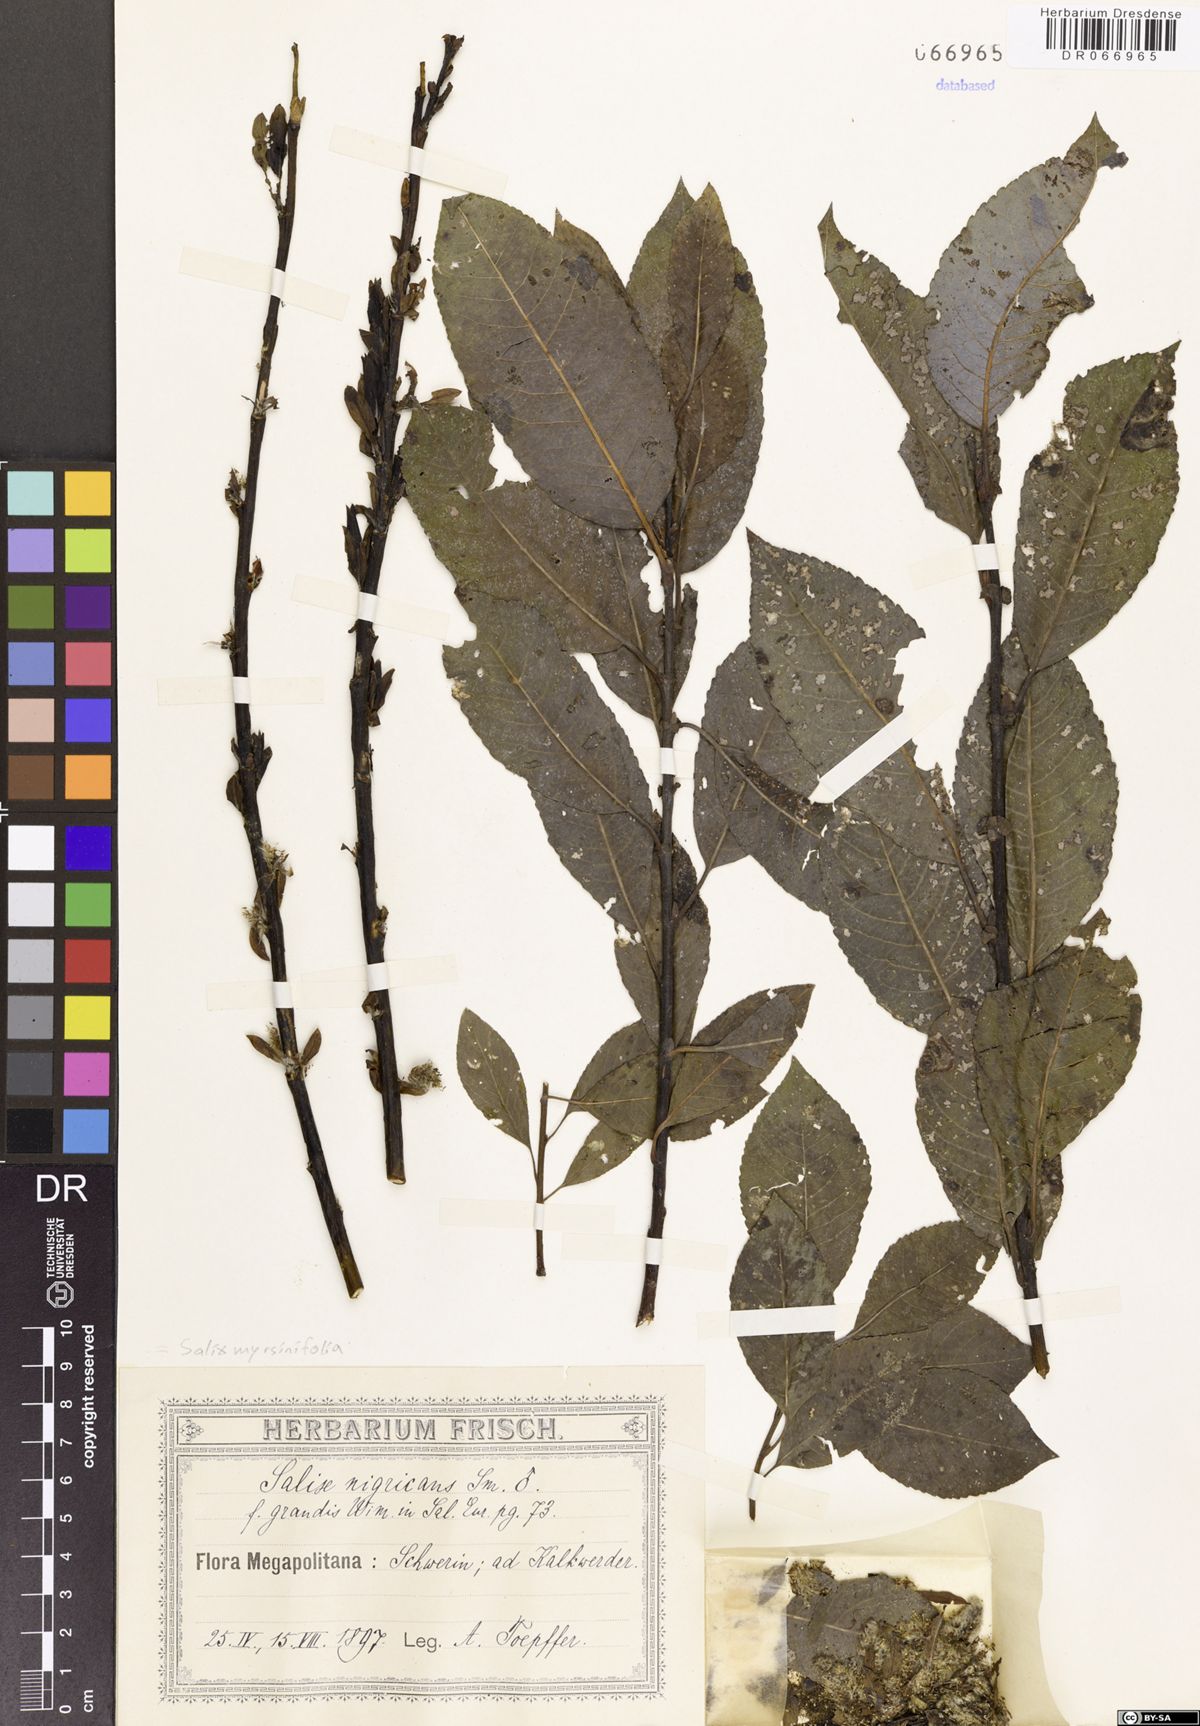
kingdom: Plantae
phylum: Tracheophyta
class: Magnoliopsida
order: Malpighiales
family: Salicaceae
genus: Salix
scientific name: Salix myrsinifolia
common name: Dark-leaved willow
